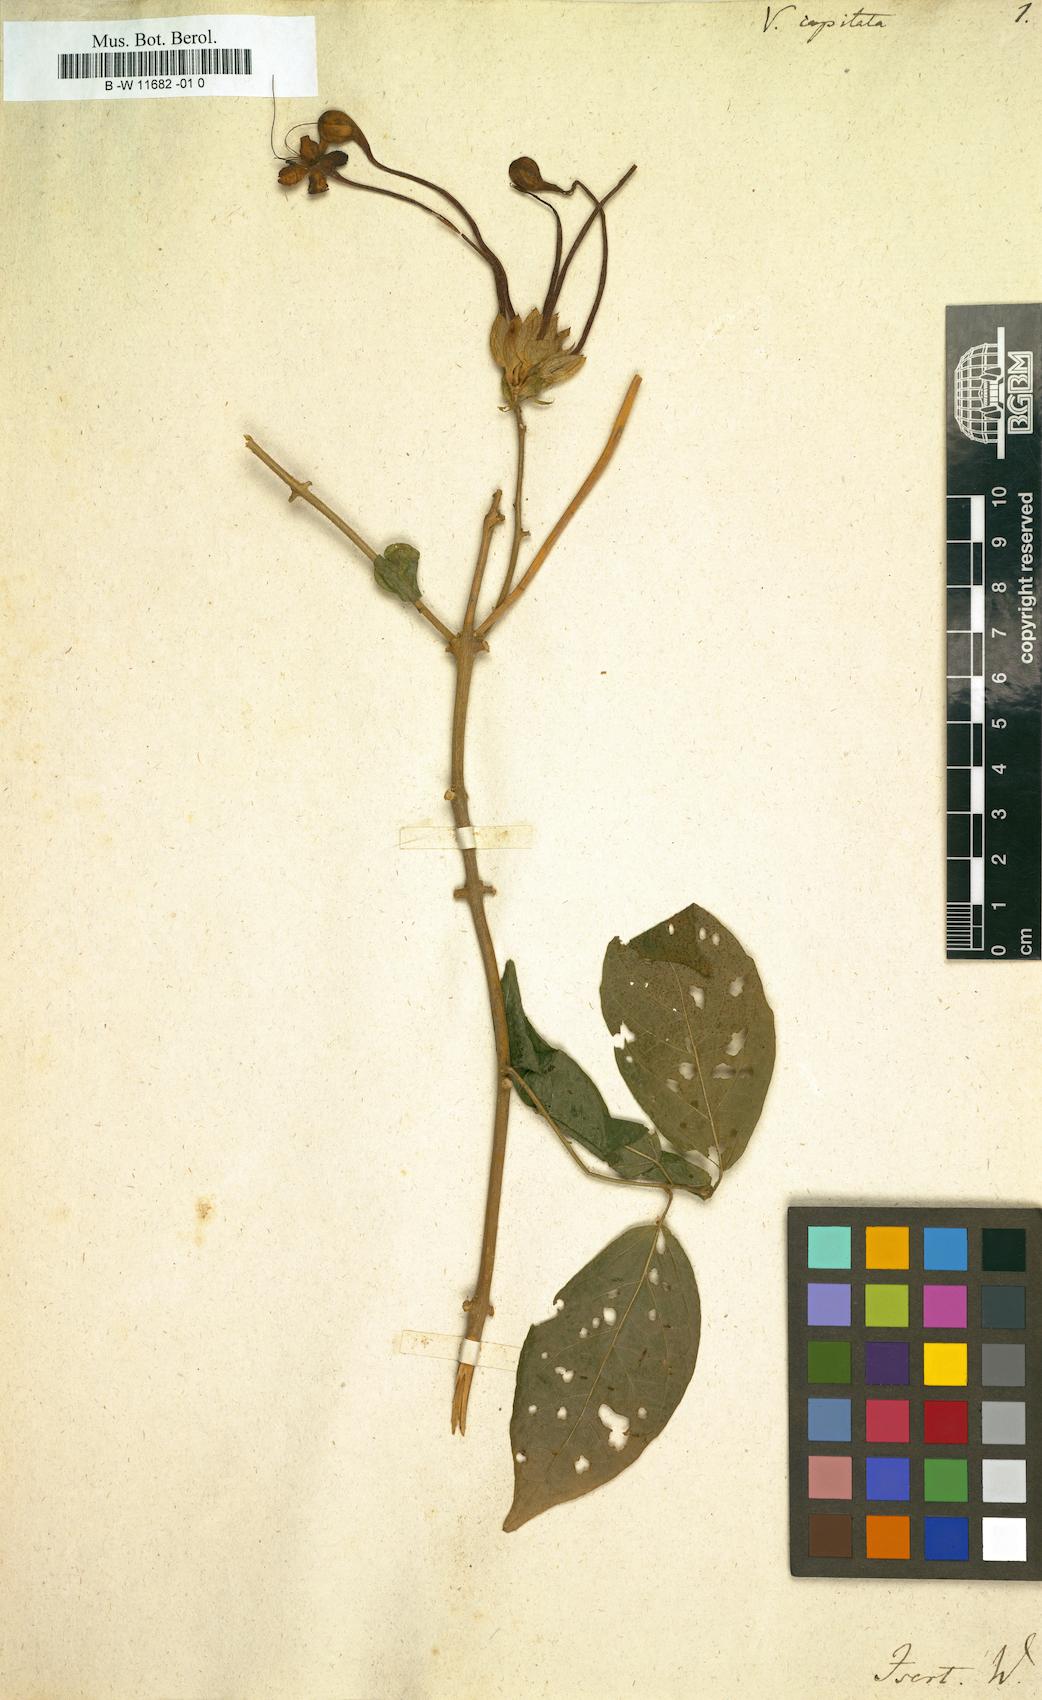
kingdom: Plantae
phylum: Tracheophyta
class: Magnoliopsida
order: Lamiales
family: Lamiaceae
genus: Clerodendrum
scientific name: Clerodendrum capitatum
